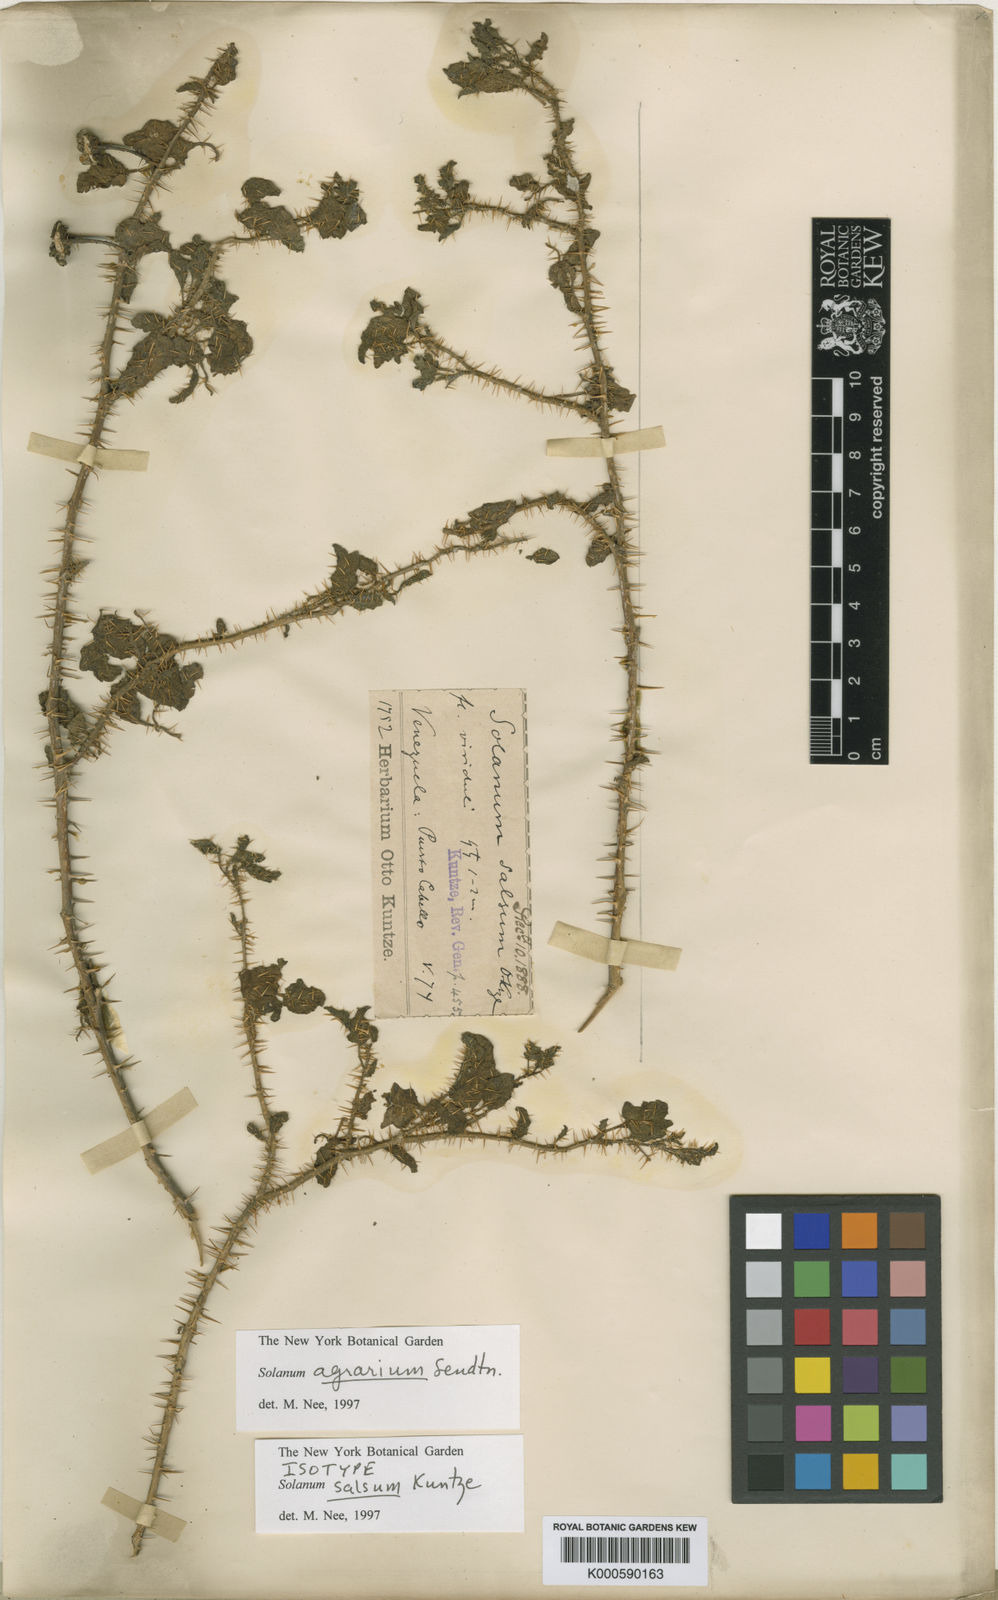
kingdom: Plantae
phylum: Tracheophyta
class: Magnoliopsida
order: Solanales
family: Solanaceae
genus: Solanum
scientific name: Solanum agrarium
